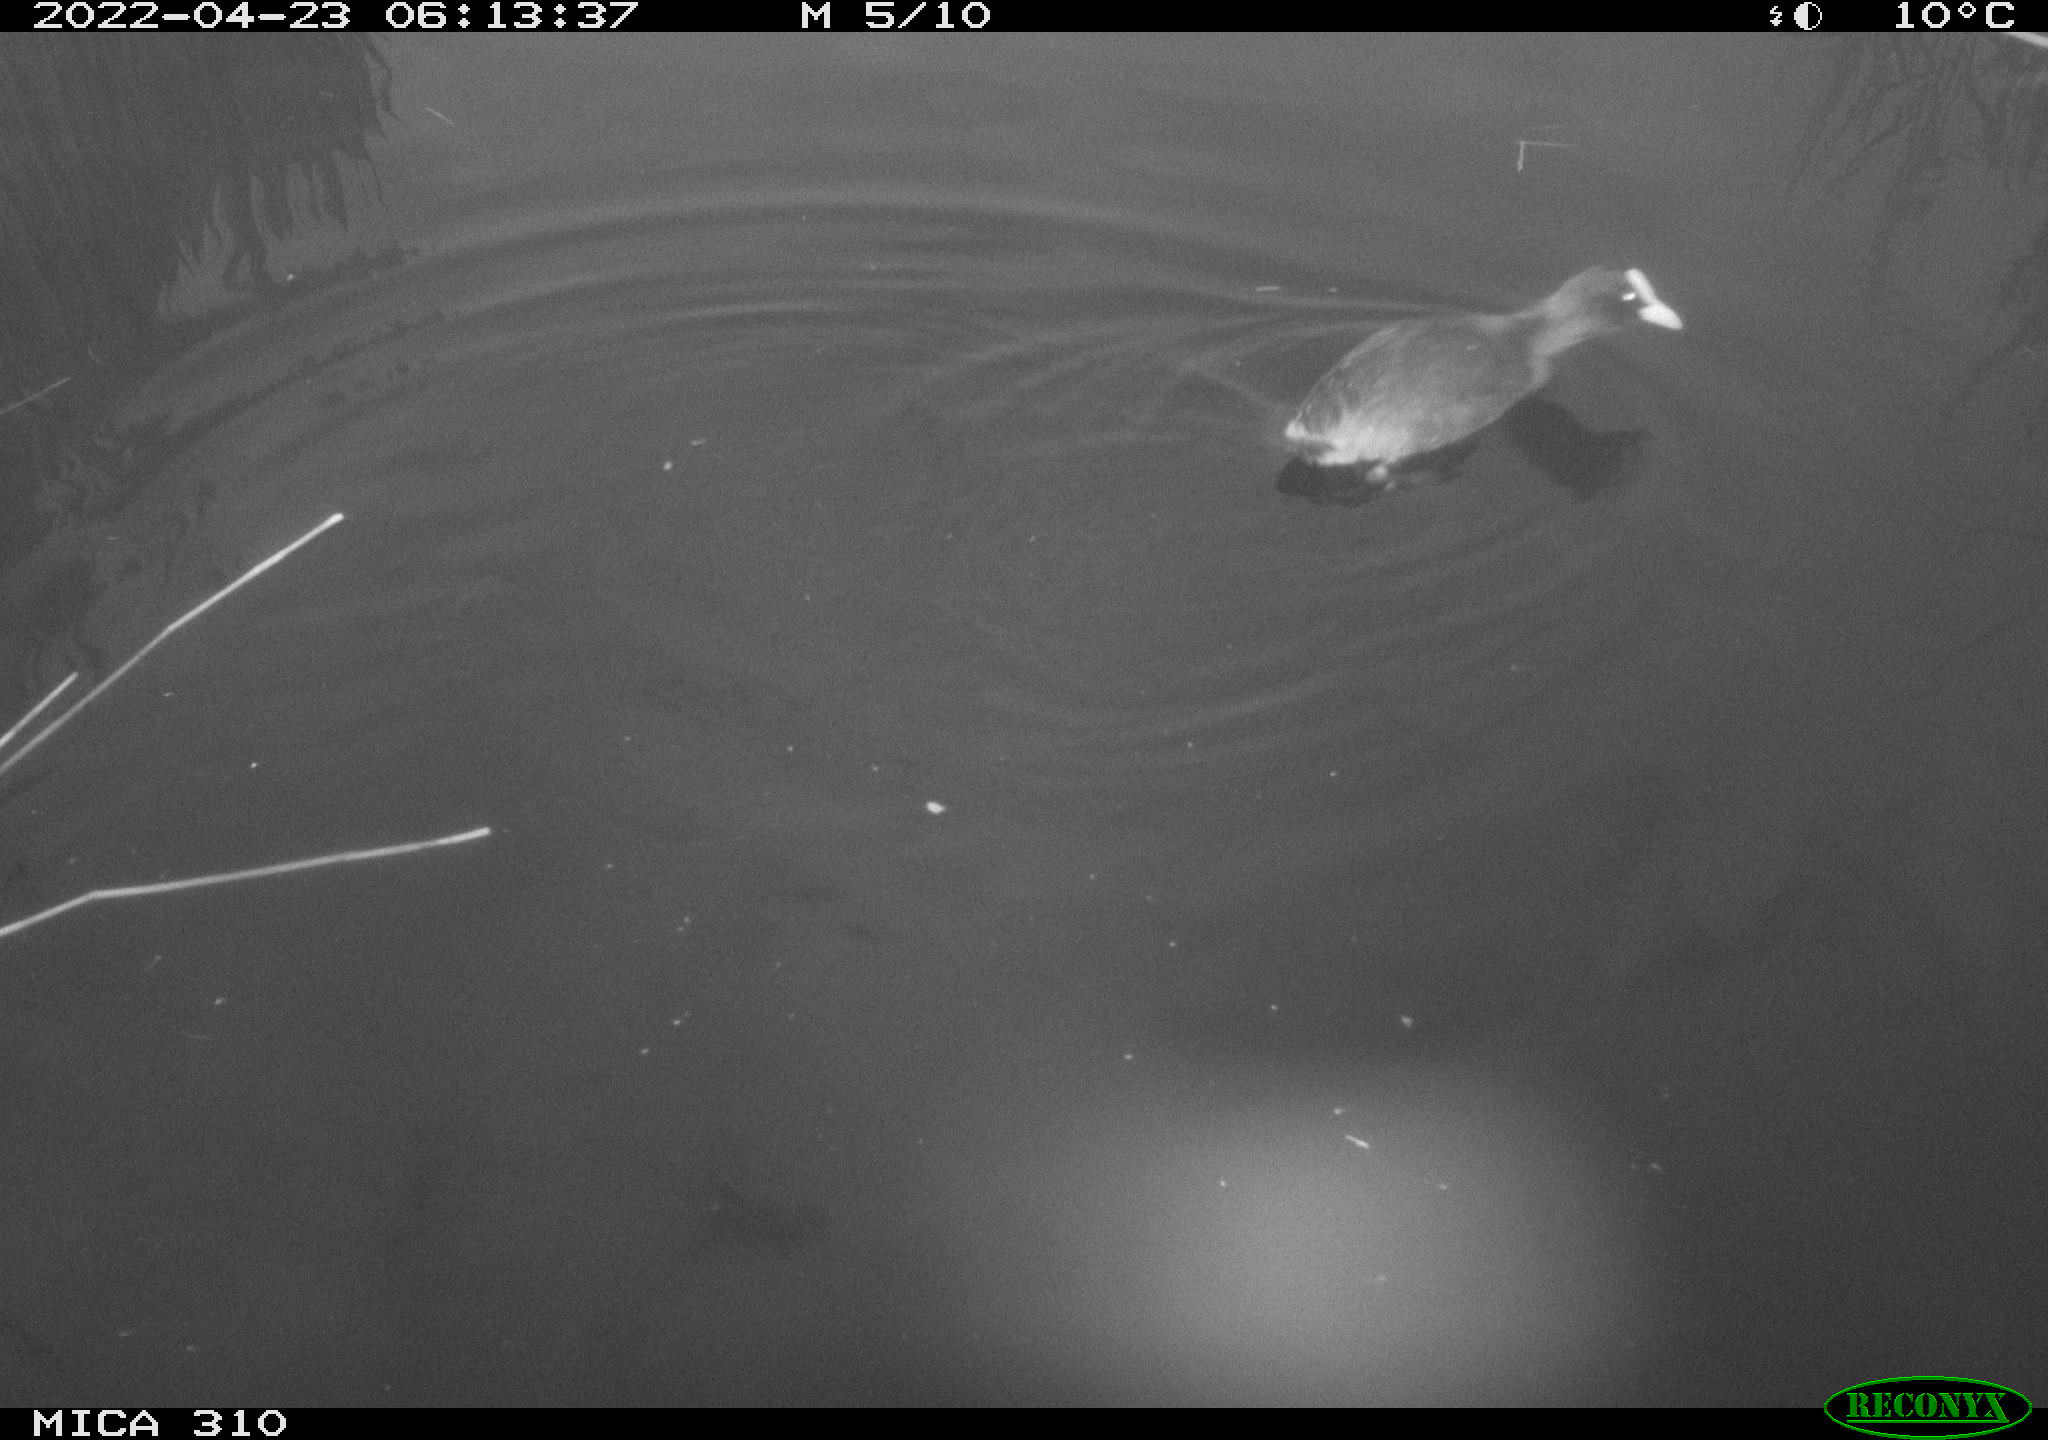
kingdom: Animalia
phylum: Chordata
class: Aves
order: Gruiformes
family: Rallidae
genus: Fulica
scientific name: Fulica atra
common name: Eurasian coot
